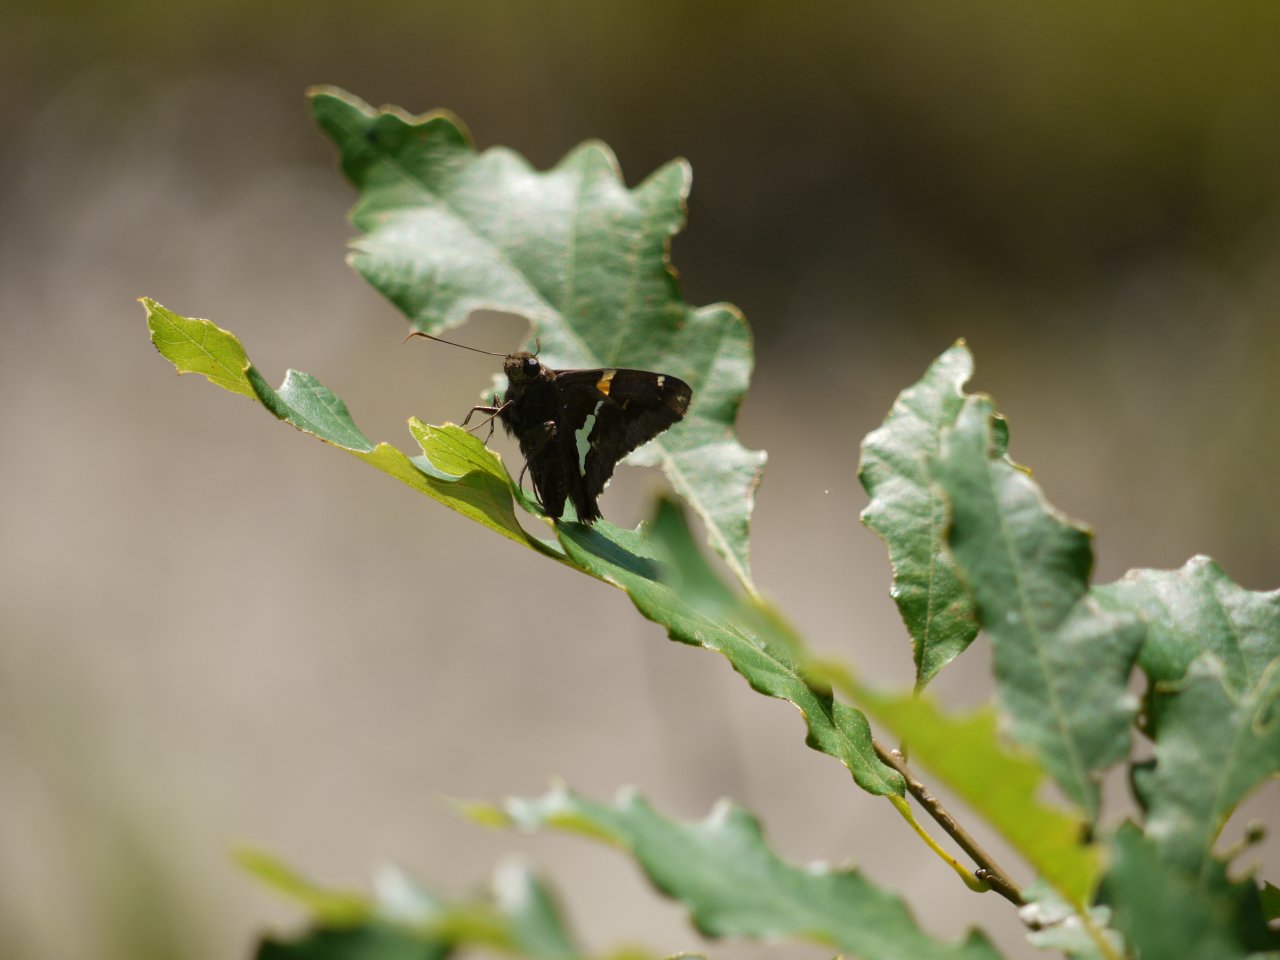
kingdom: Animalia
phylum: Arthropoda
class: Insecta
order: Lepidoptera
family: Hesperiidae
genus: Epargyreus
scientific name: Epargyreus clarus
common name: Silver-spotted Skipper
